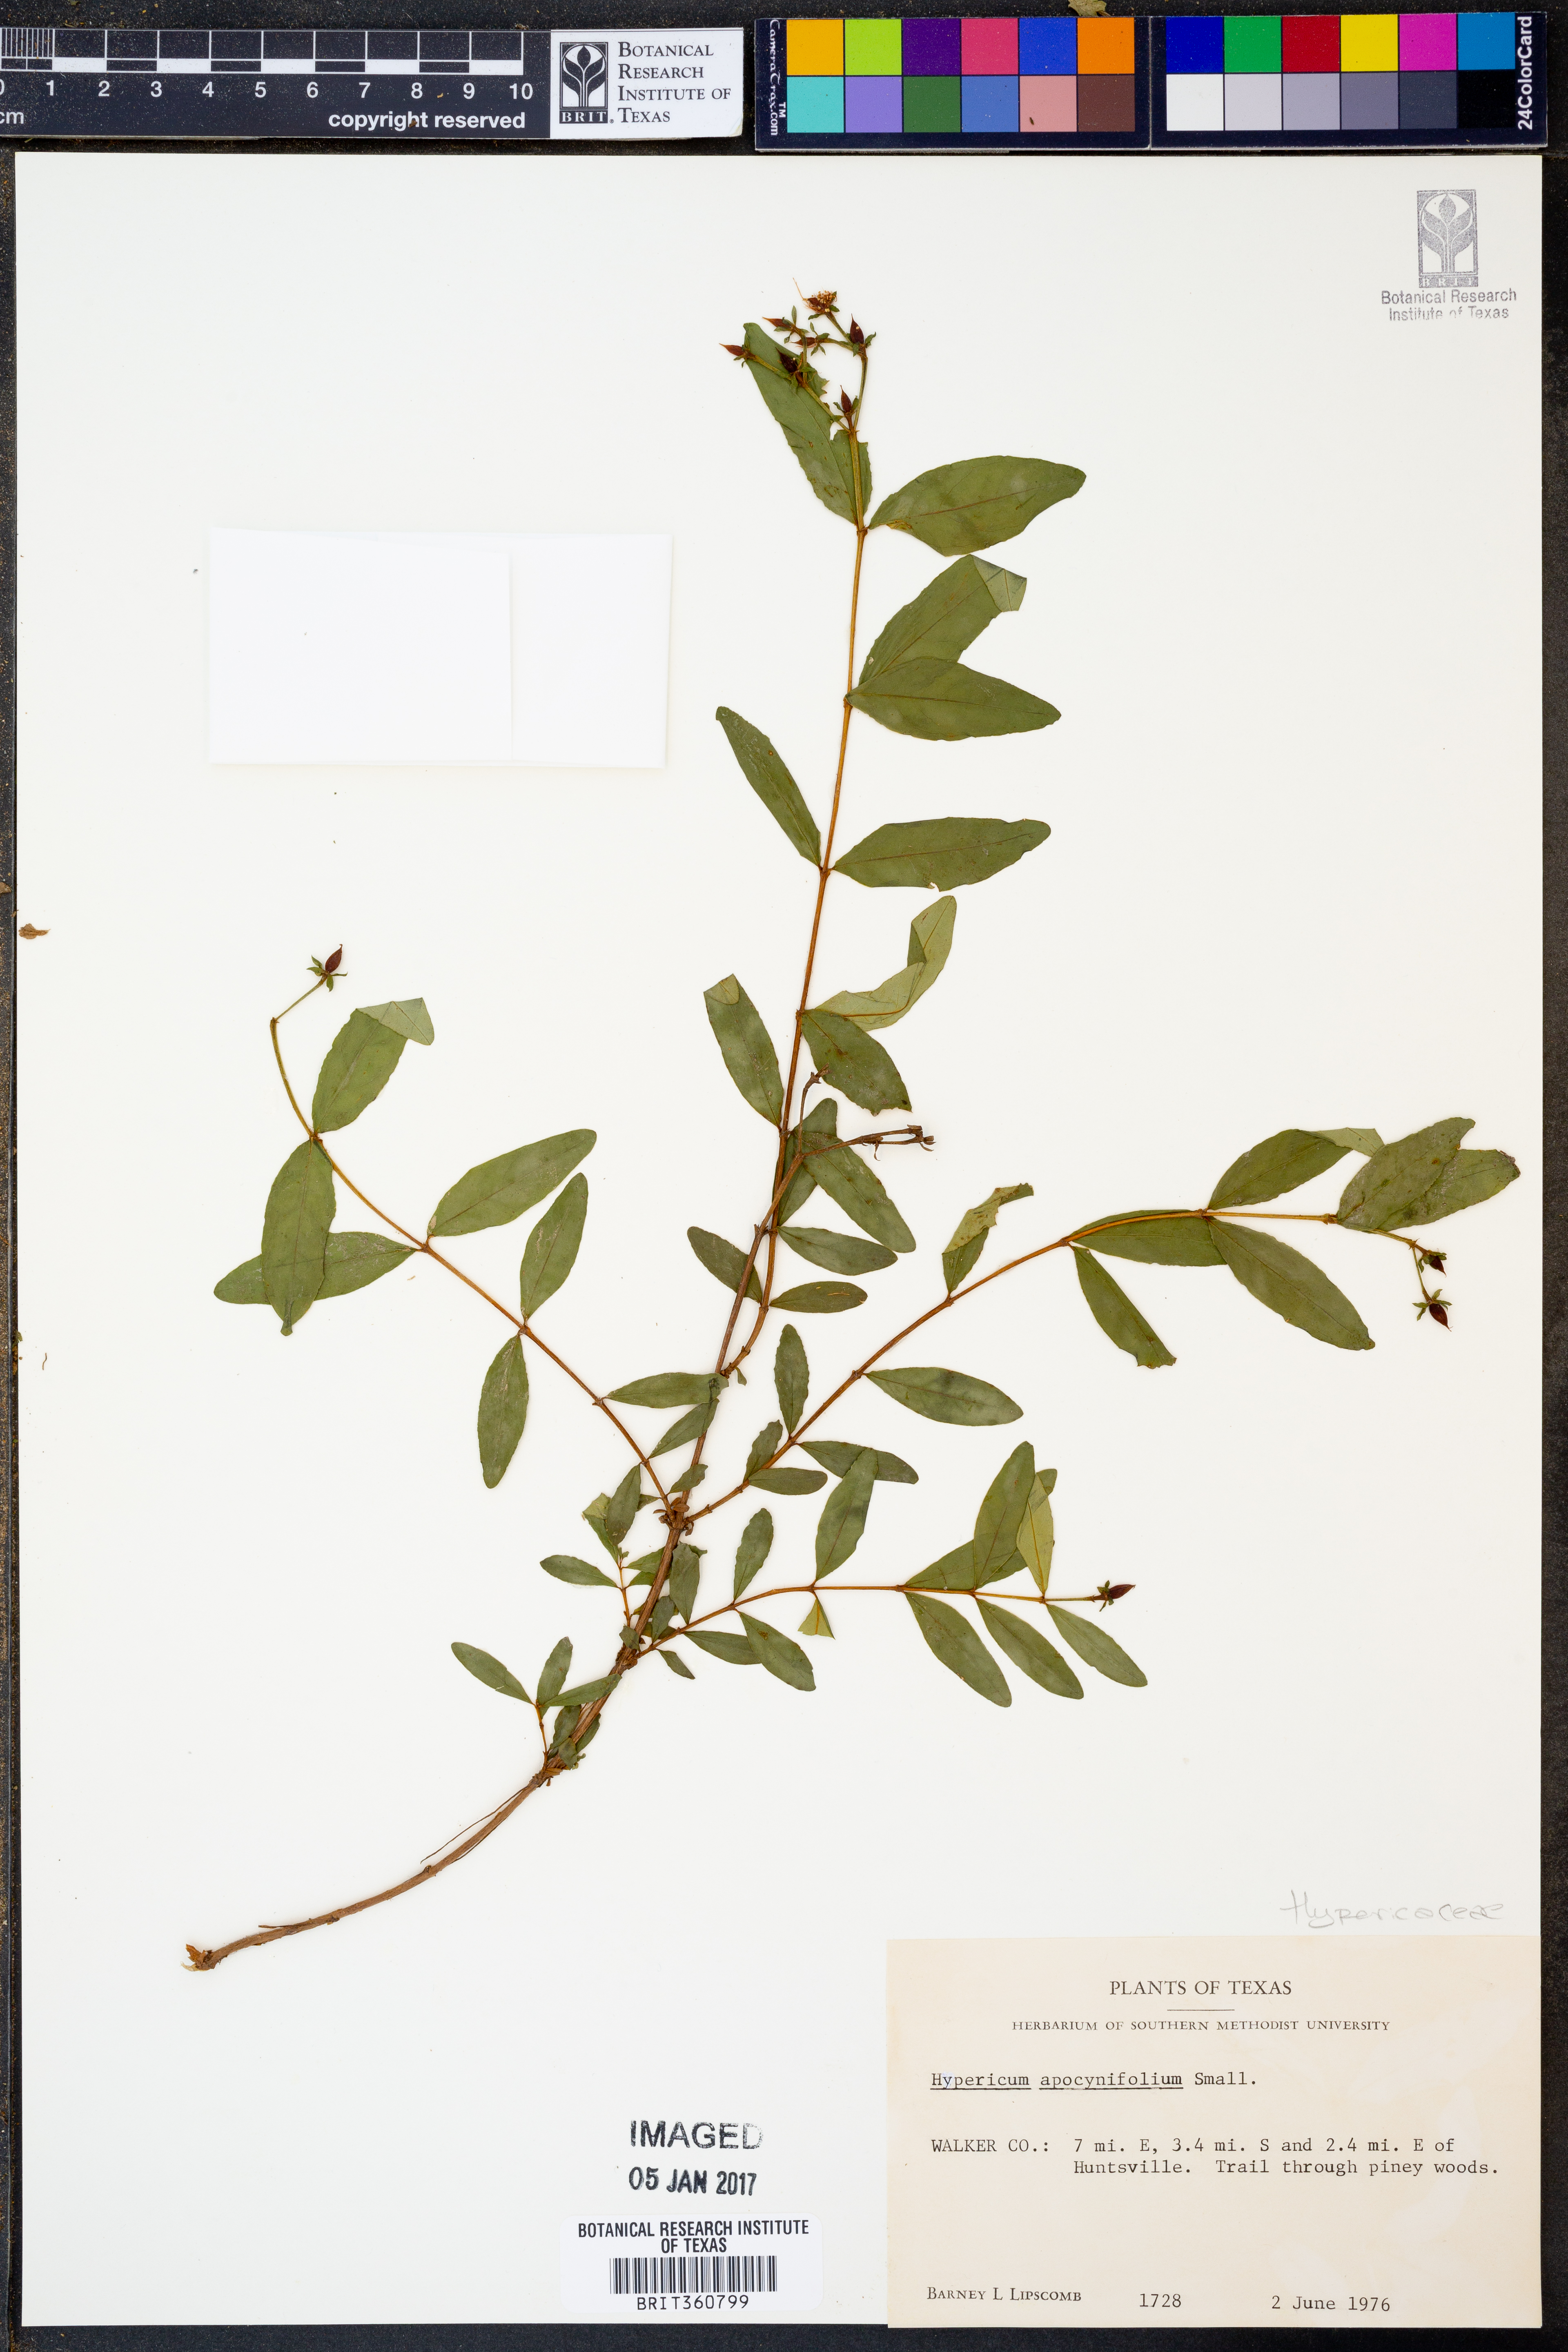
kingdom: Plantae
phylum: Tracheophyta
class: Magnoliopsida
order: Malpighiales
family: Hypericaceae
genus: Hypericum
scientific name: Hypericum apocynifolium
